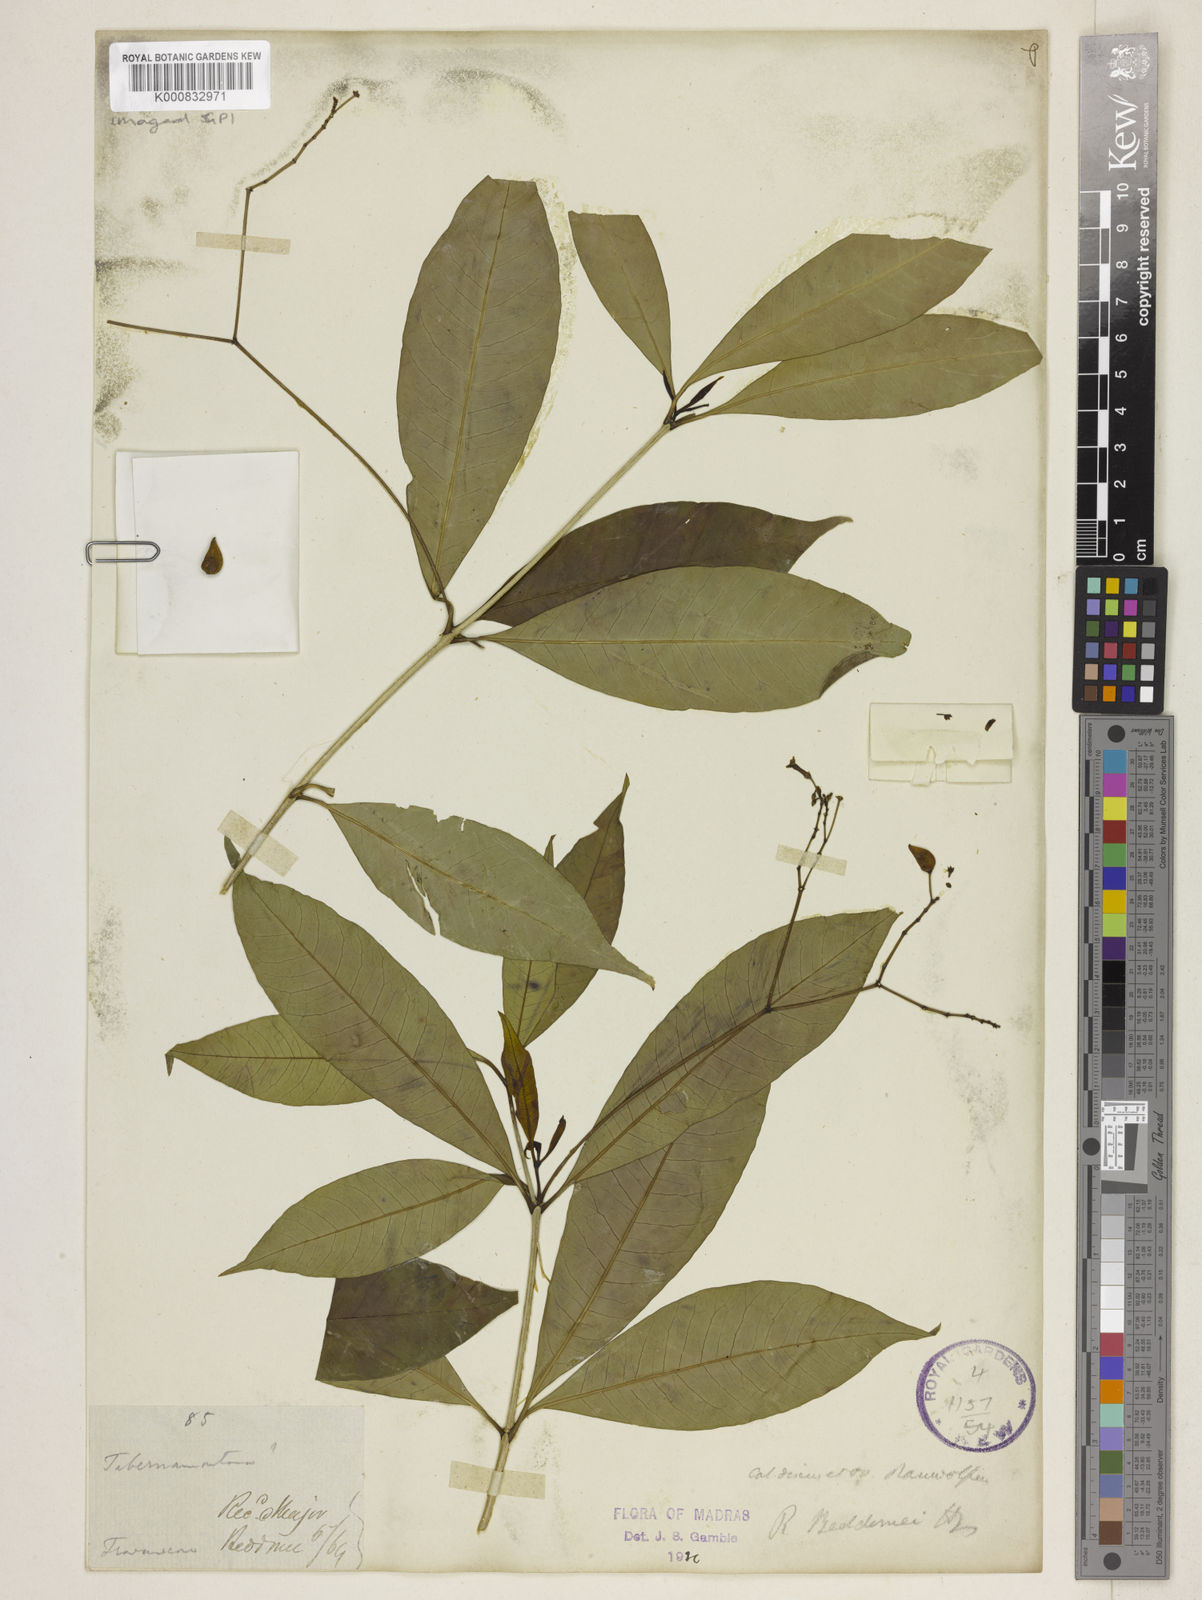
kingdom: Plantae
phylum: Tracheophyta
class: Magnoliopsida
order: Gentianales
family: Apocynaceae
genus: Rauvolfia
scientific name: Rauvolfia beddomei
